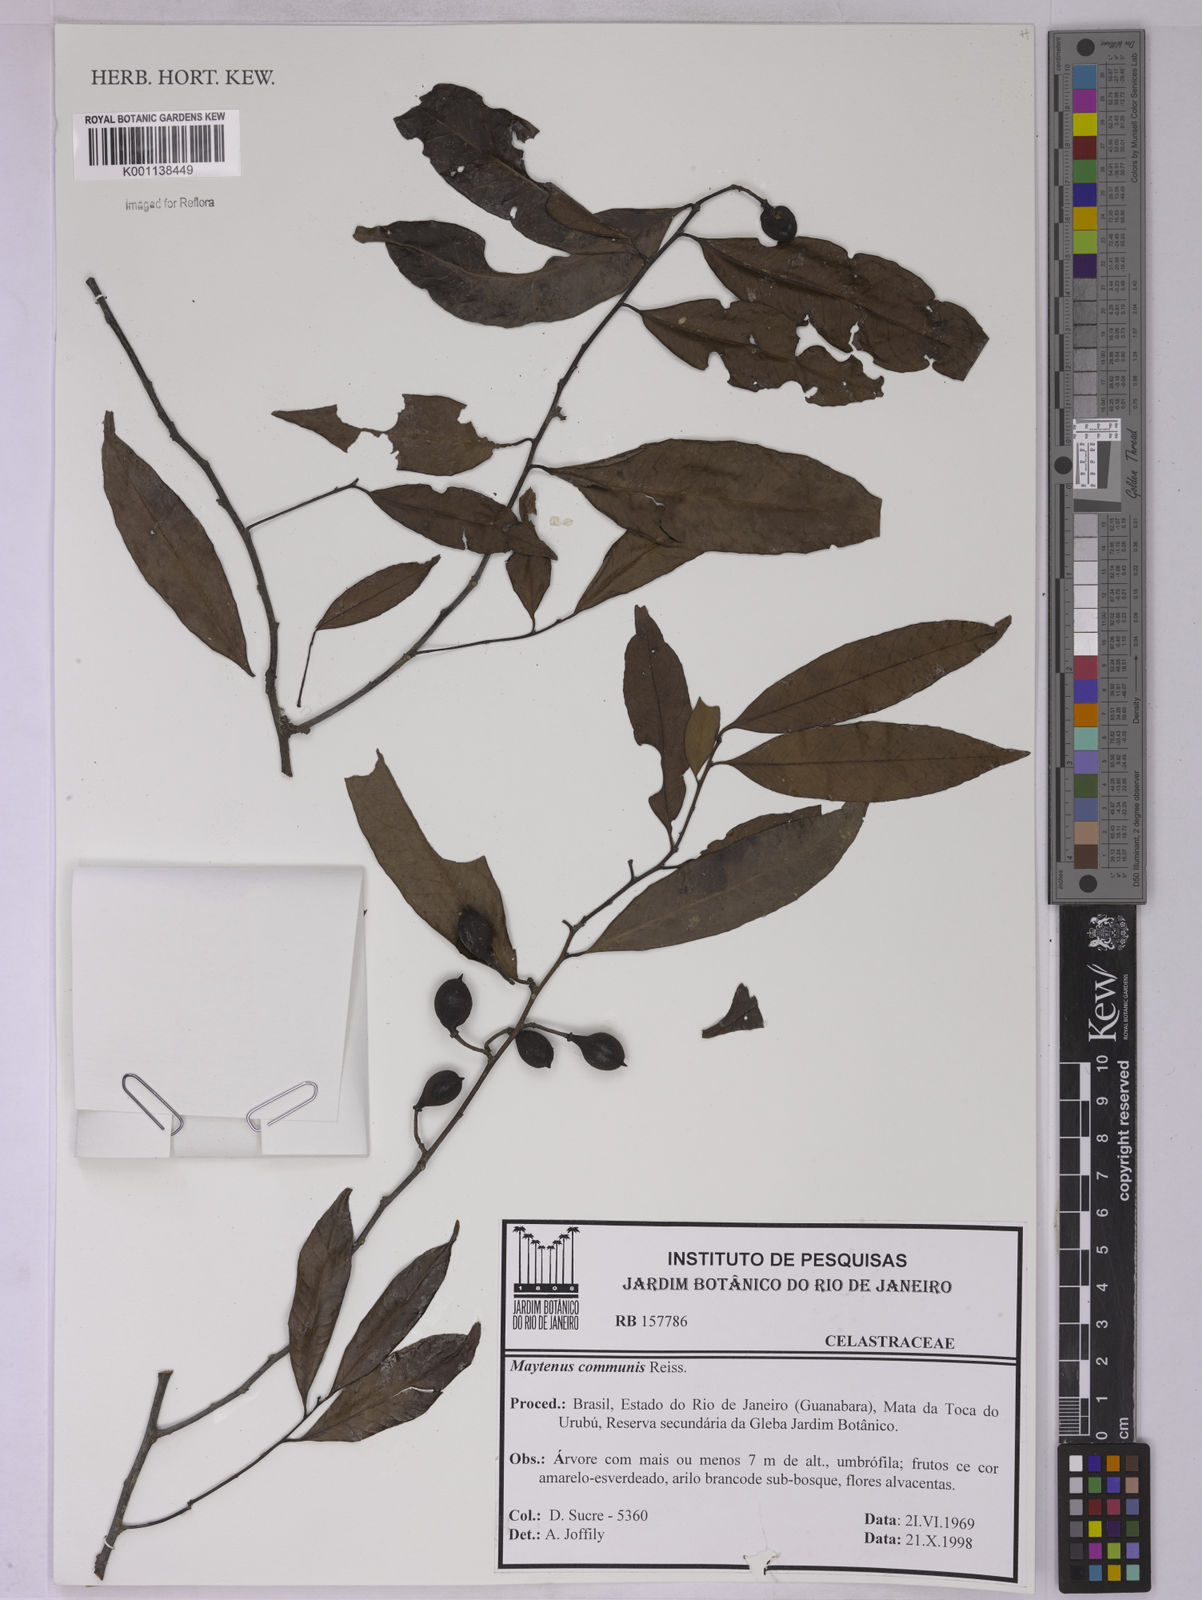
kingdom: Plantae
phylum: Tracheophyta
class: Magnoliopsida
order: Celastrales
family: Celastraceae
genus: Monteverdia
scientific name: Monteverdia communis
